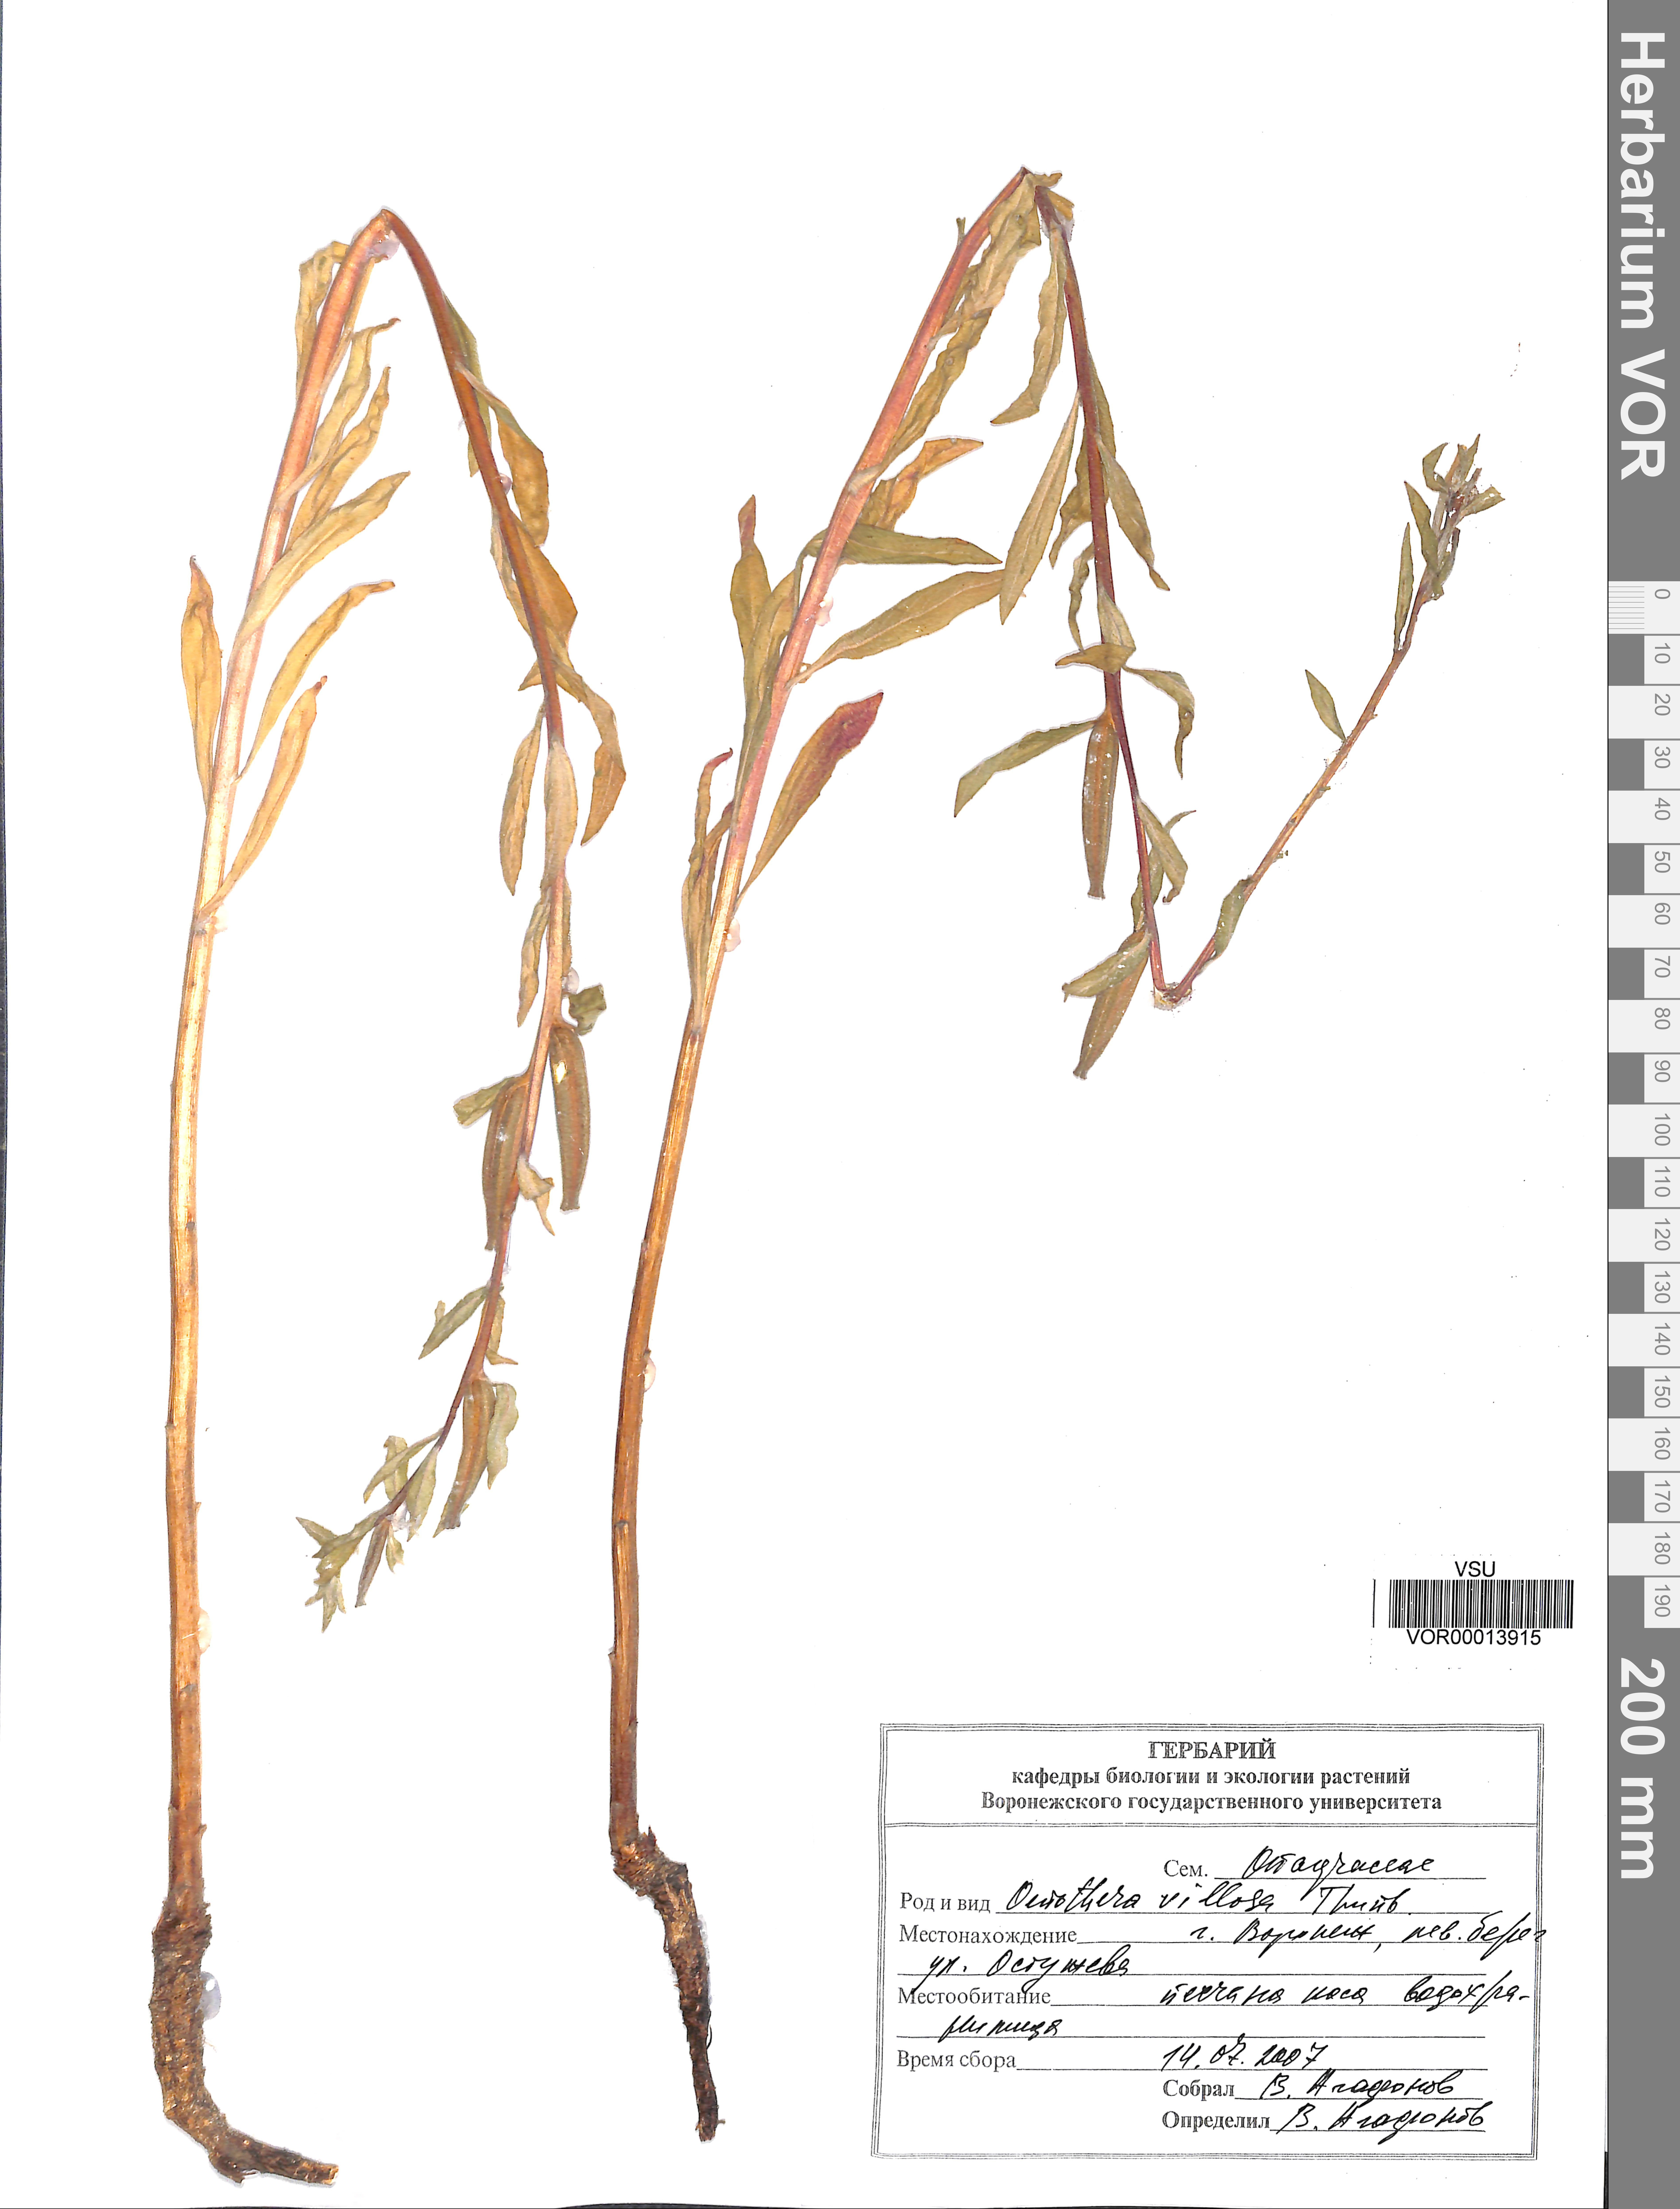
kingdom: Plantae
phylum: Tracheophyta
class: Magnoliopsida
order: Myrtales
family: Onagraceae
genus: Oenothera
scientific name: Oenothera villosa
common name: Hairy evening-primrose
